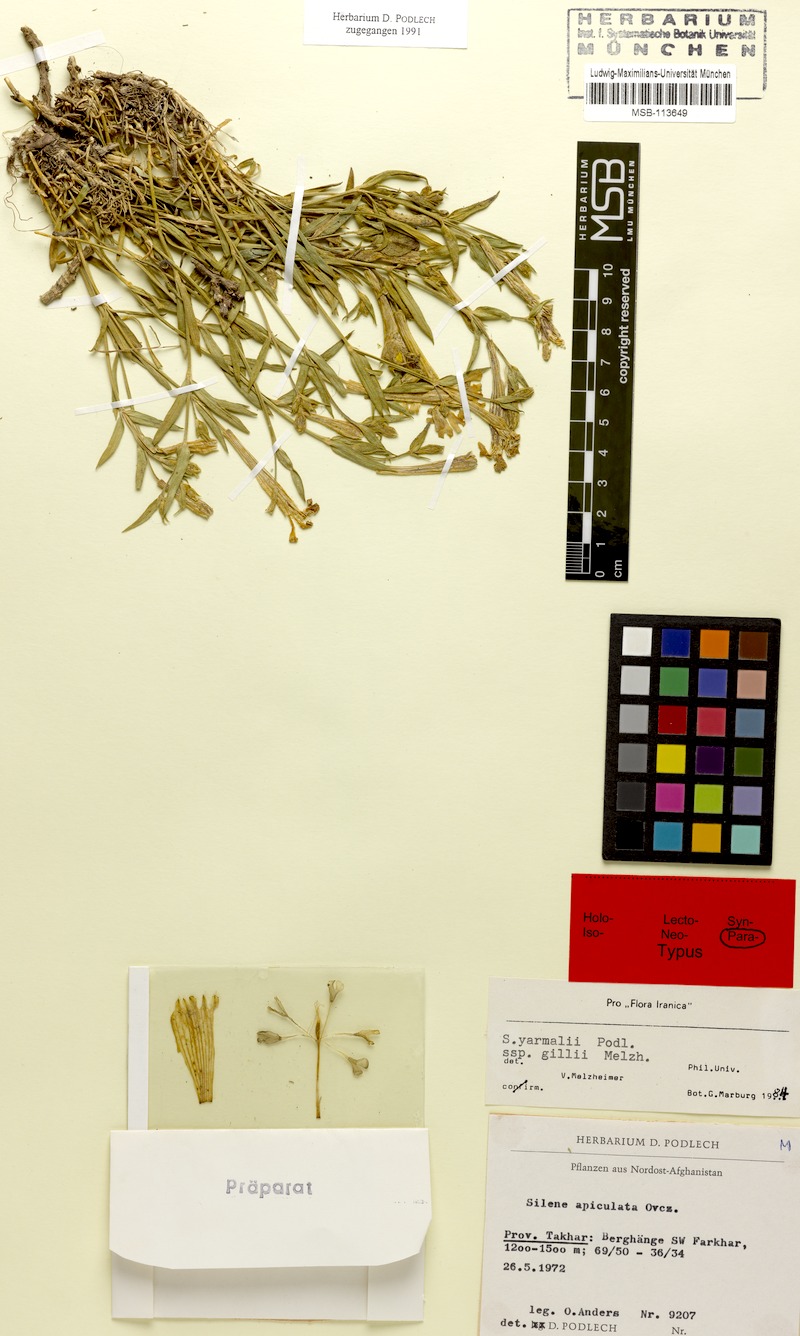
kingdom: Plantae
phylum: Tracheophyta
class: Magnoliopsida
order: Caryophyllales
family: Caryophyllaceae
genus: Silene
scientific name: Silene yarmalii
